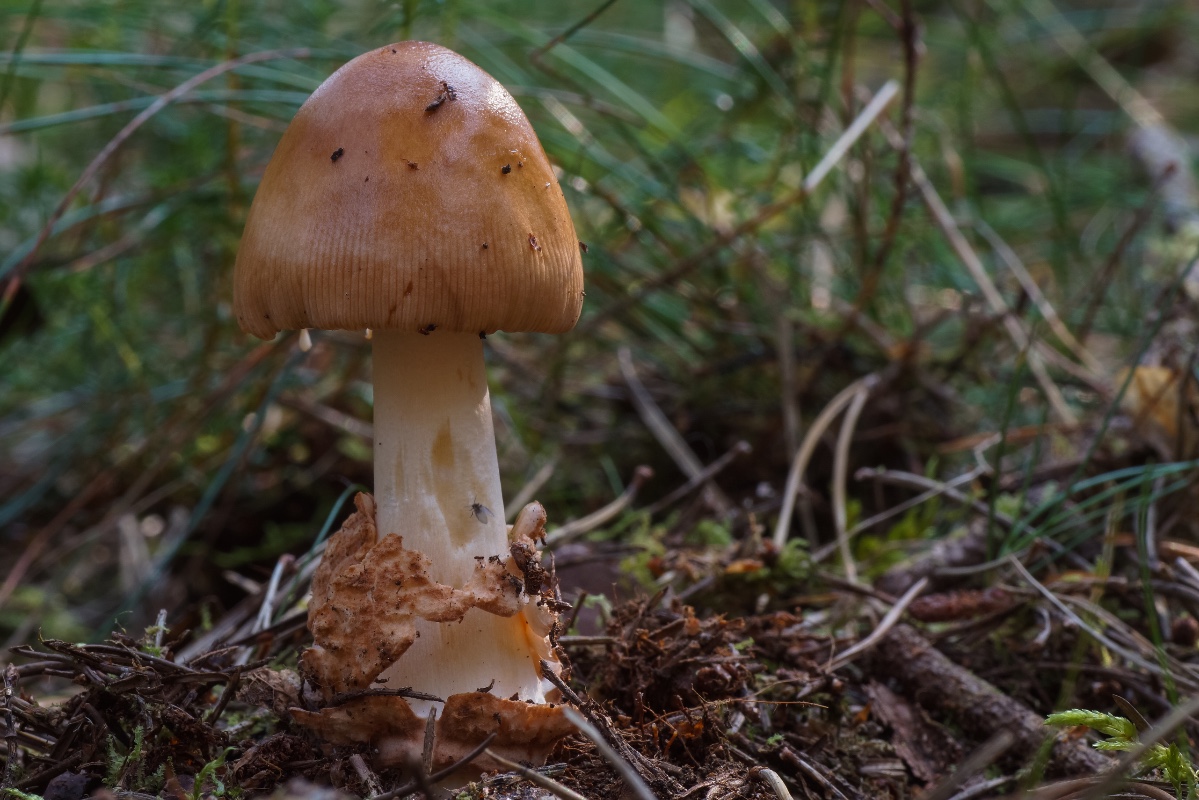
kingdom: Fungi
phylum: Basidiomycota
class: Agaricomycetes
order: Agaricales
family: Amanitaceae
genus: Amanita
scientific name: Amanita fulva
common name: brun kam-fluesvamp
